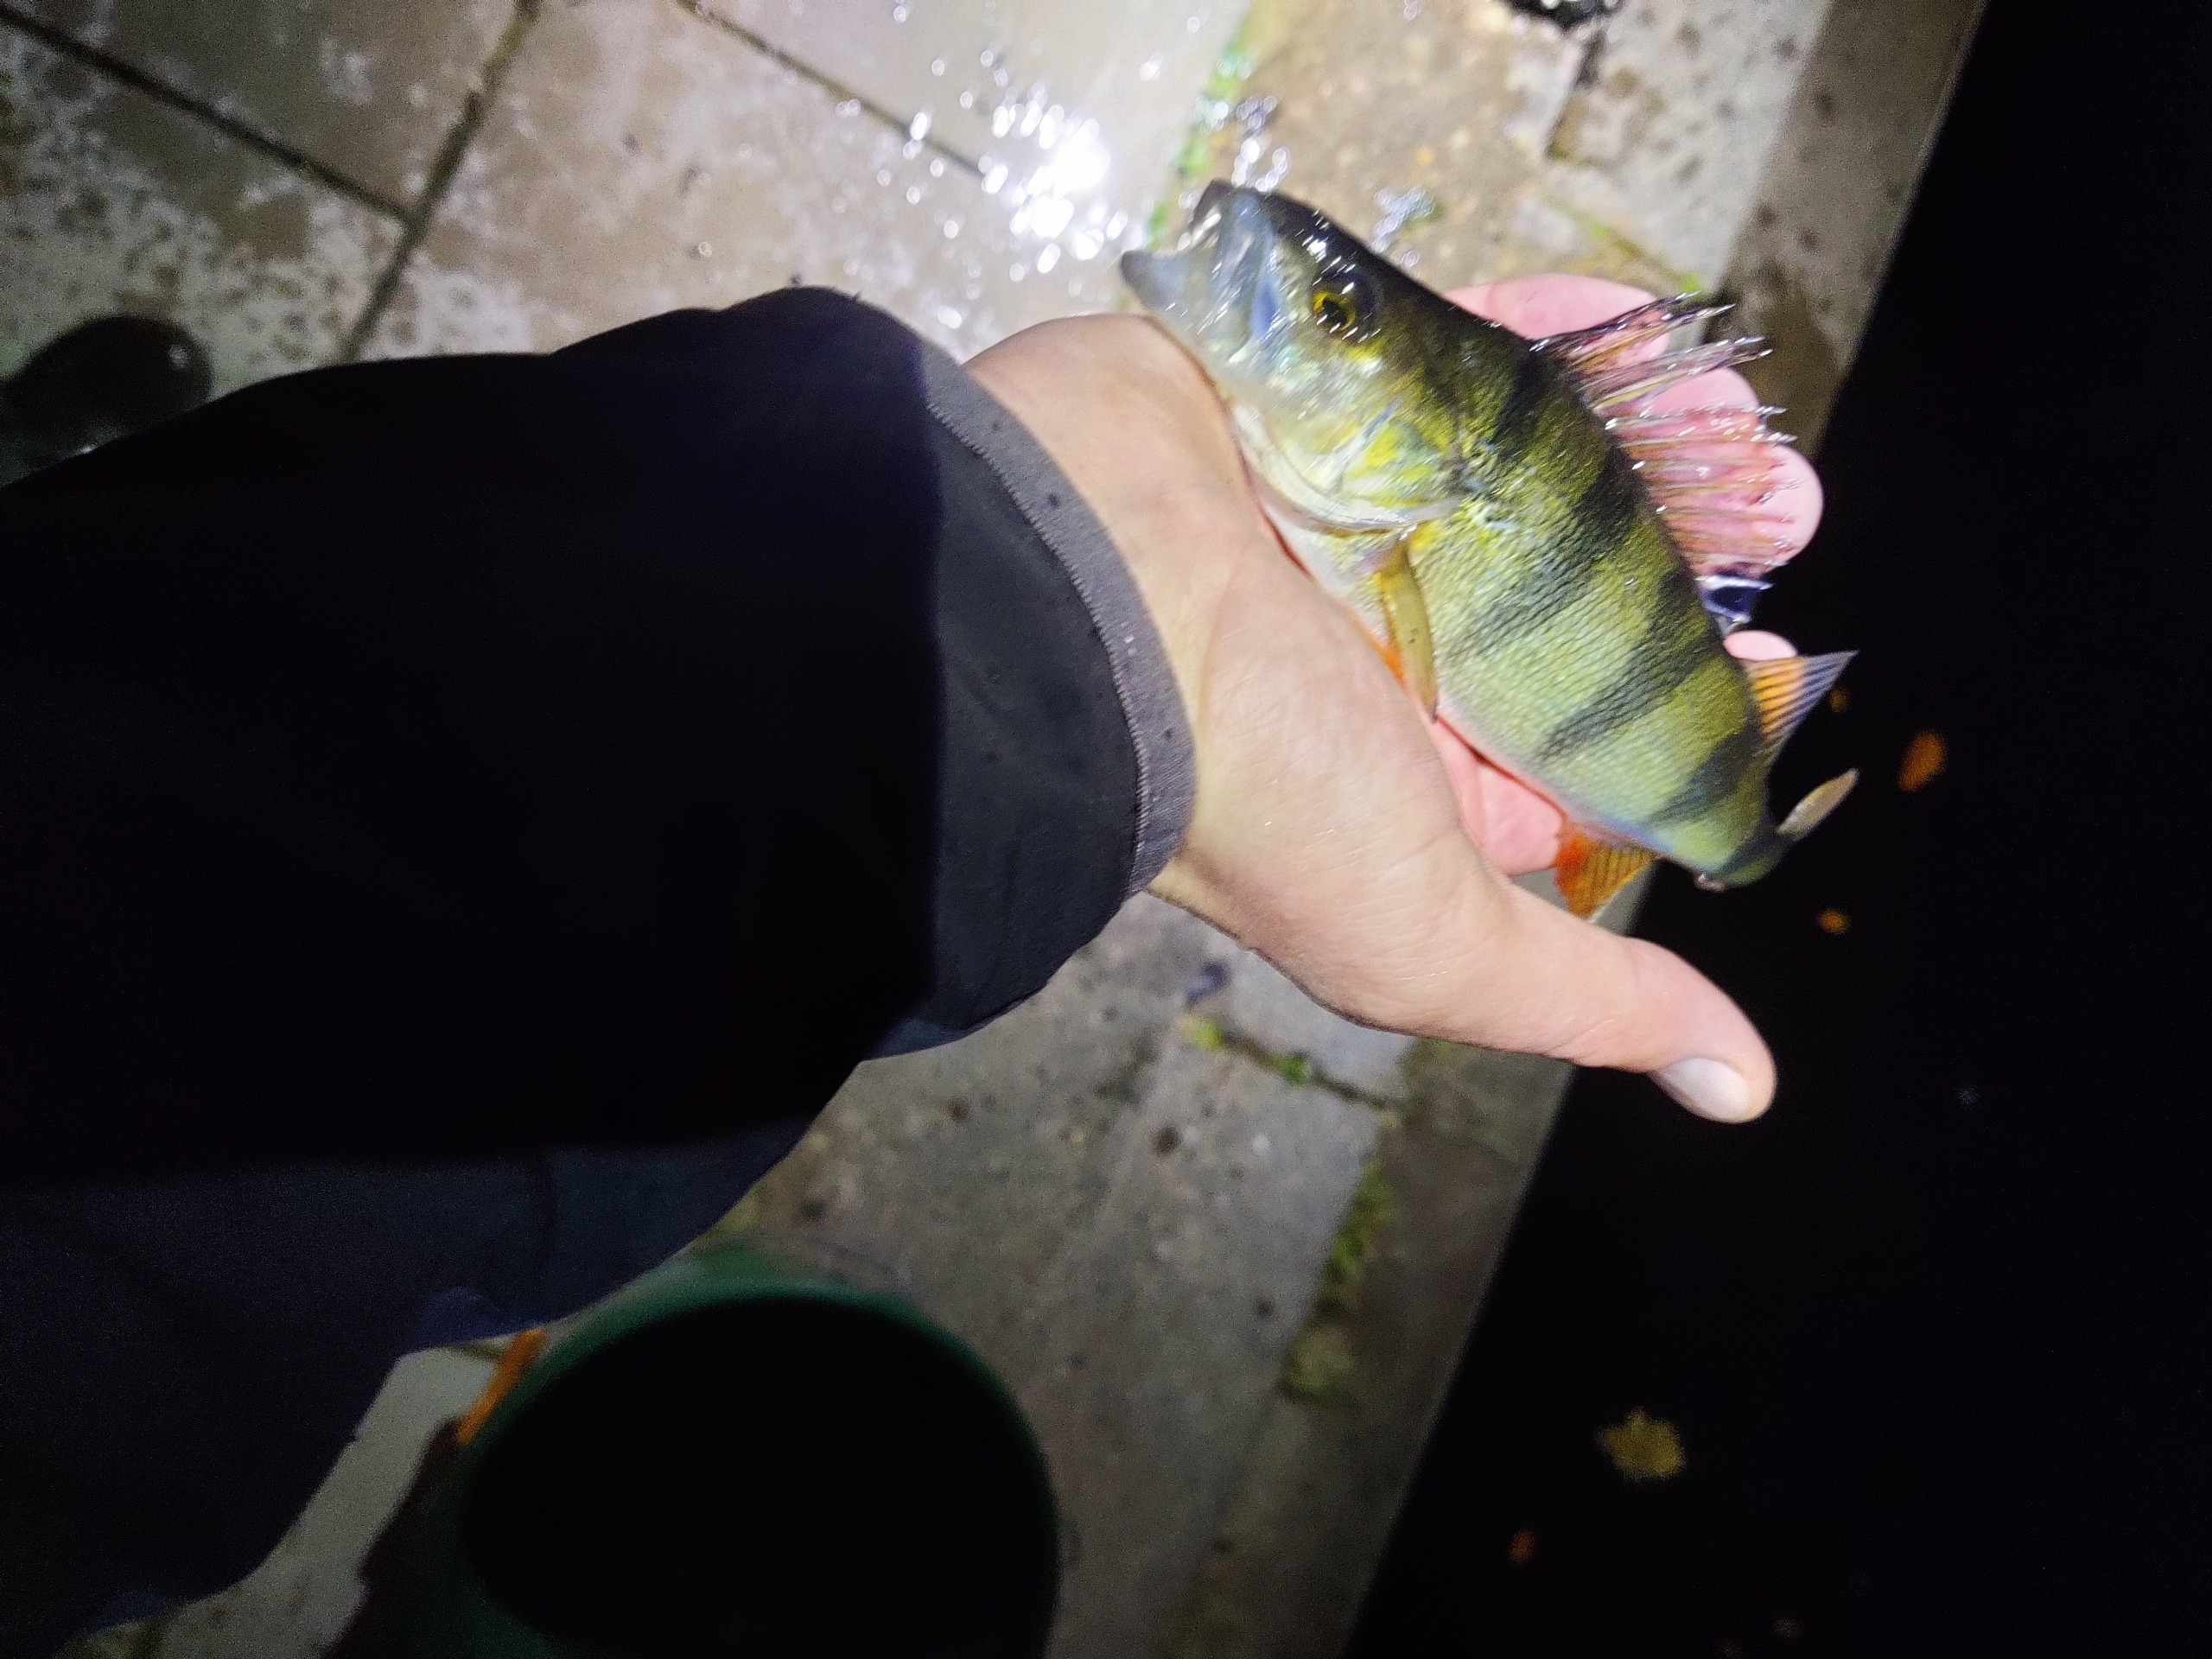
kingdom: Animalia
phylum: Chordata
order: Perciformes
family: Percidae
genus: Perca
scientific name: Perca fluviatilis
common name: Aborre
